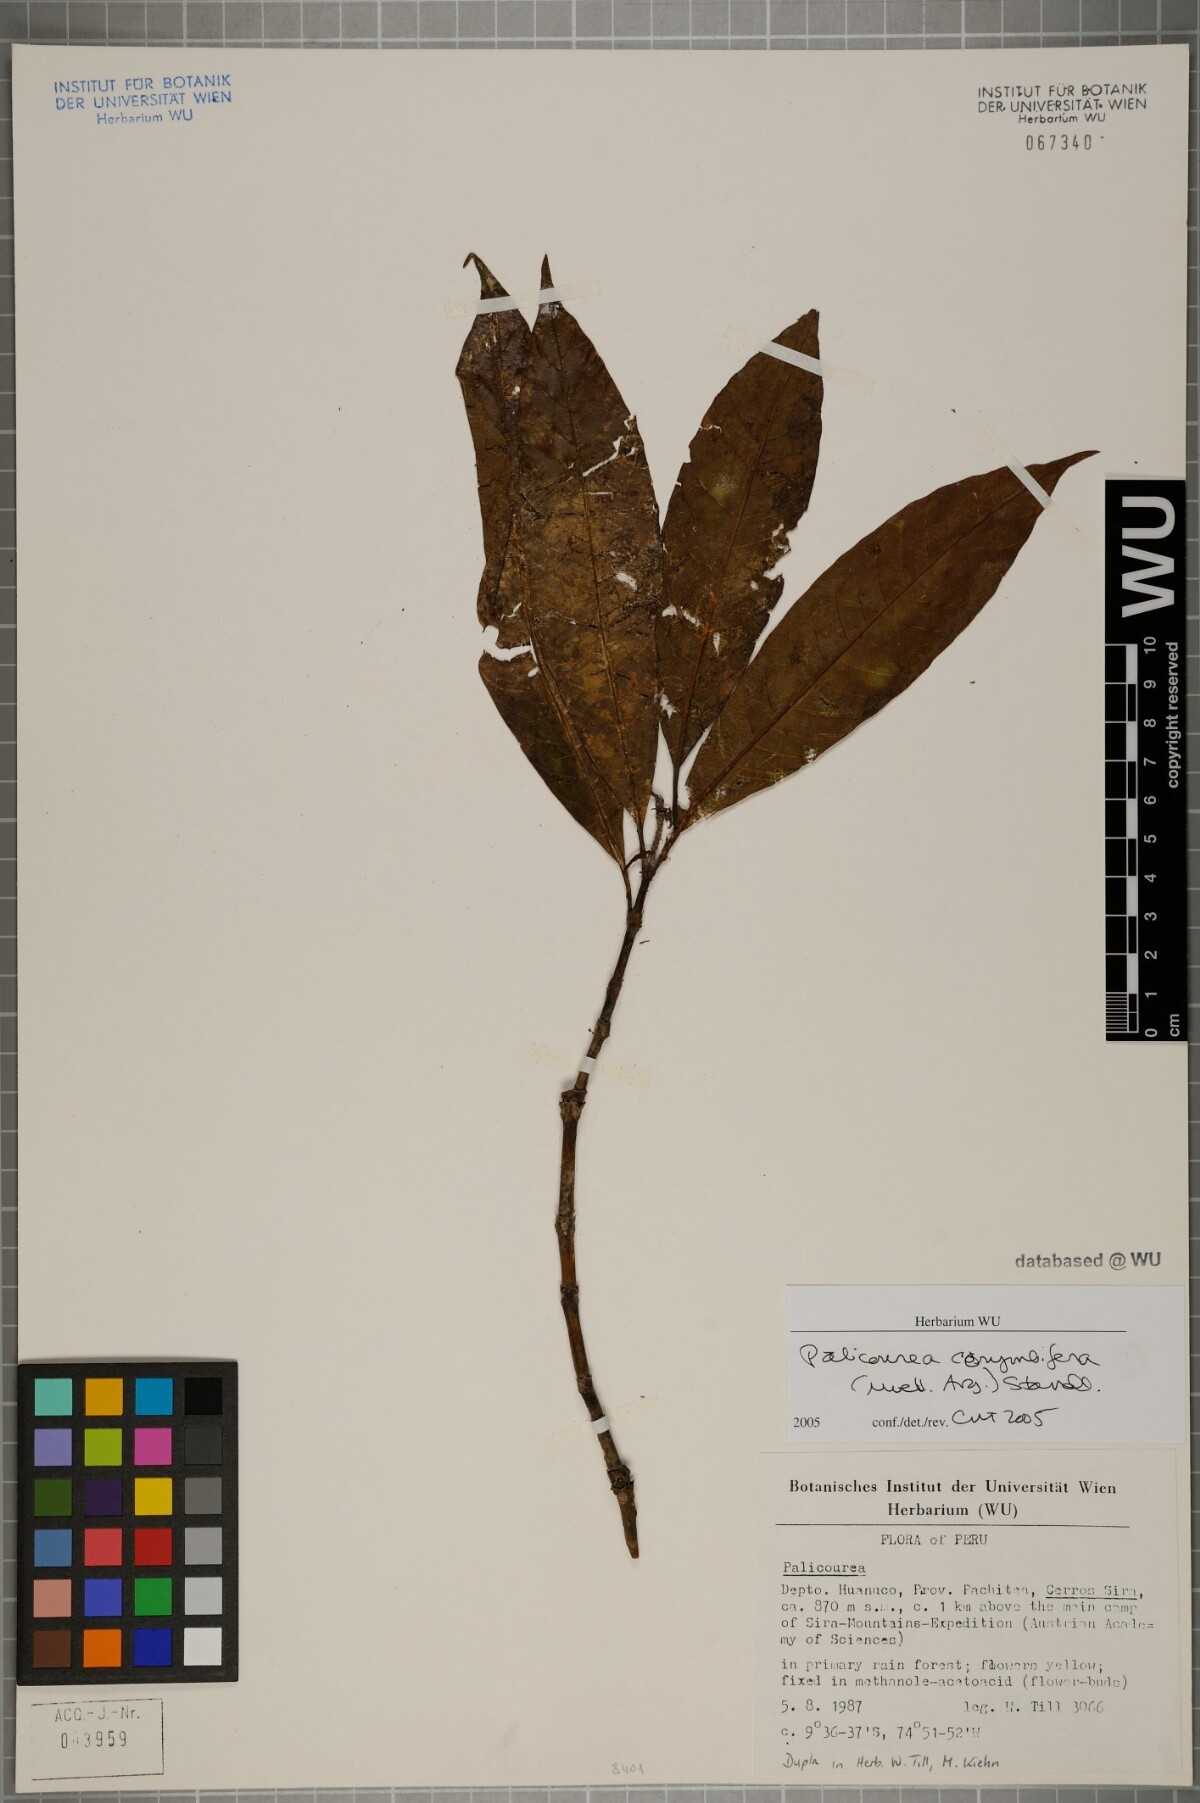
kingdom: Plantae
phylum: Tracheophyta
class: Magnoliopsida
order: Gentianales
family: Rubiaceae
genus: Palicourea
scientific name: Palicourea corymbifera
